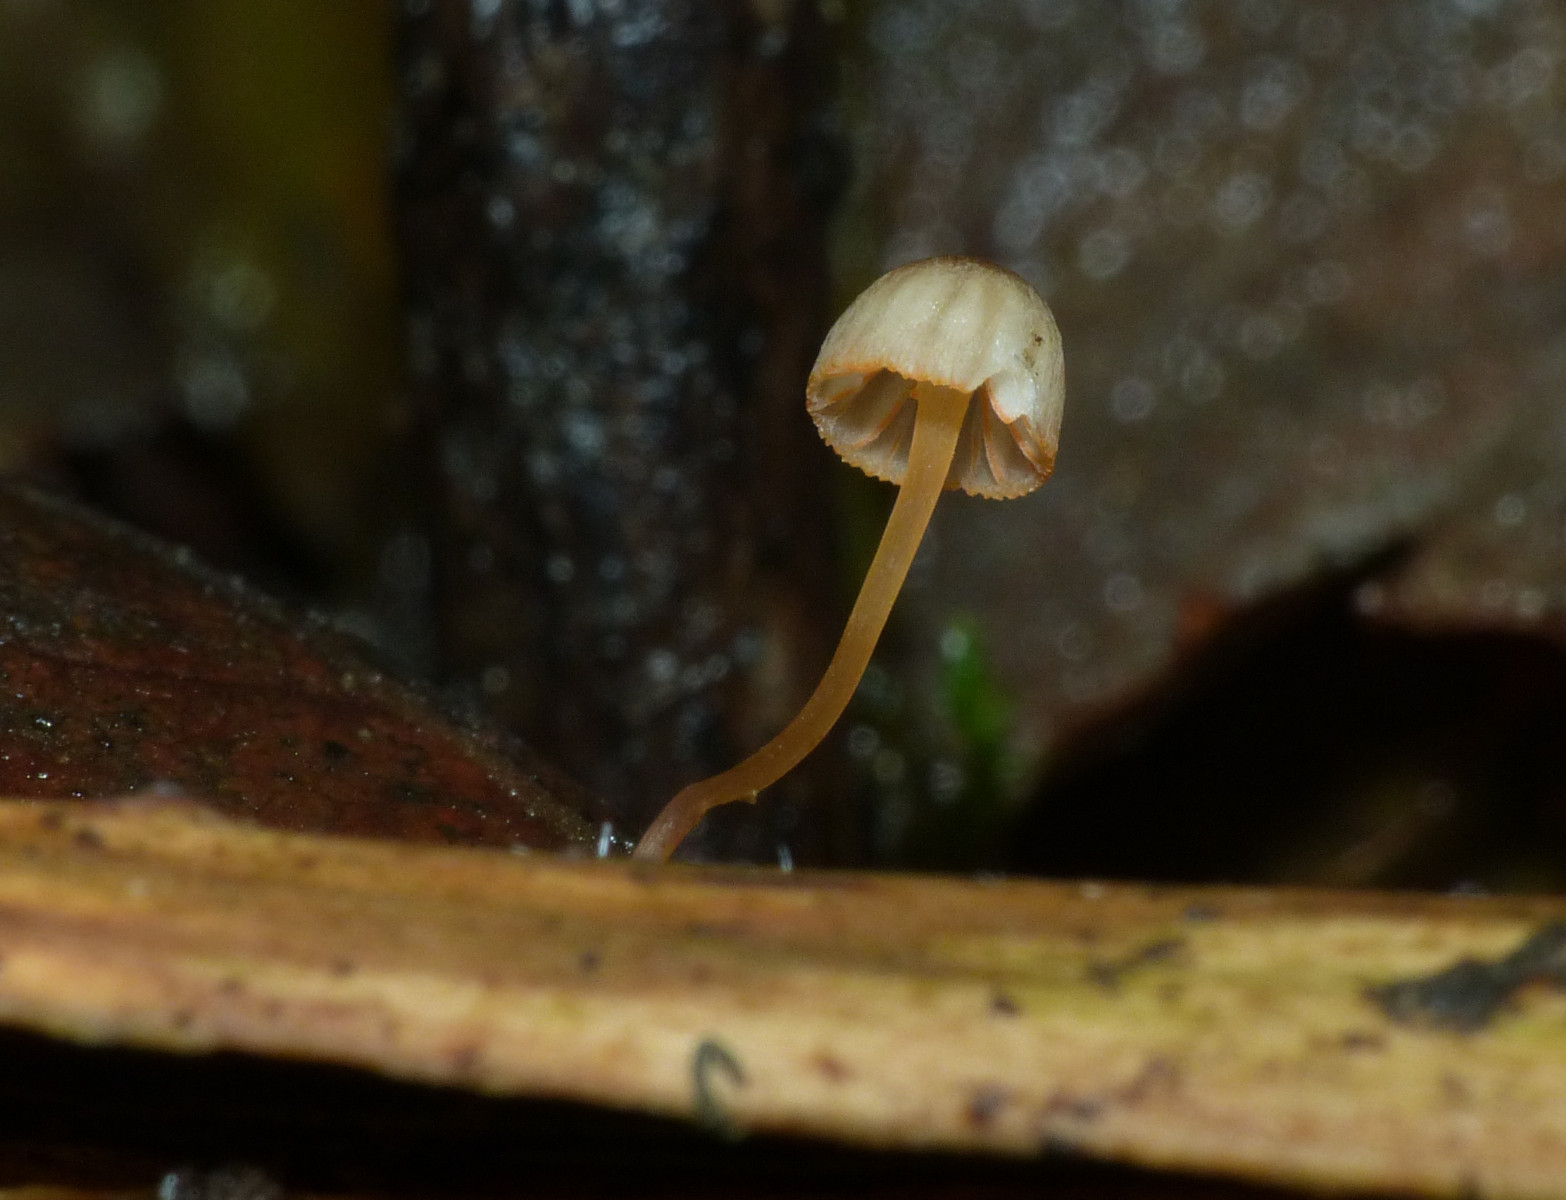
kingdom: Fungi
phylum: Basidiomycota
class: Agaricomycetes
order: Agaricales
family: Mycenaceae
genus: Mycena
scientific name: Mycena pterigena
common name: bregne-huesvamp
